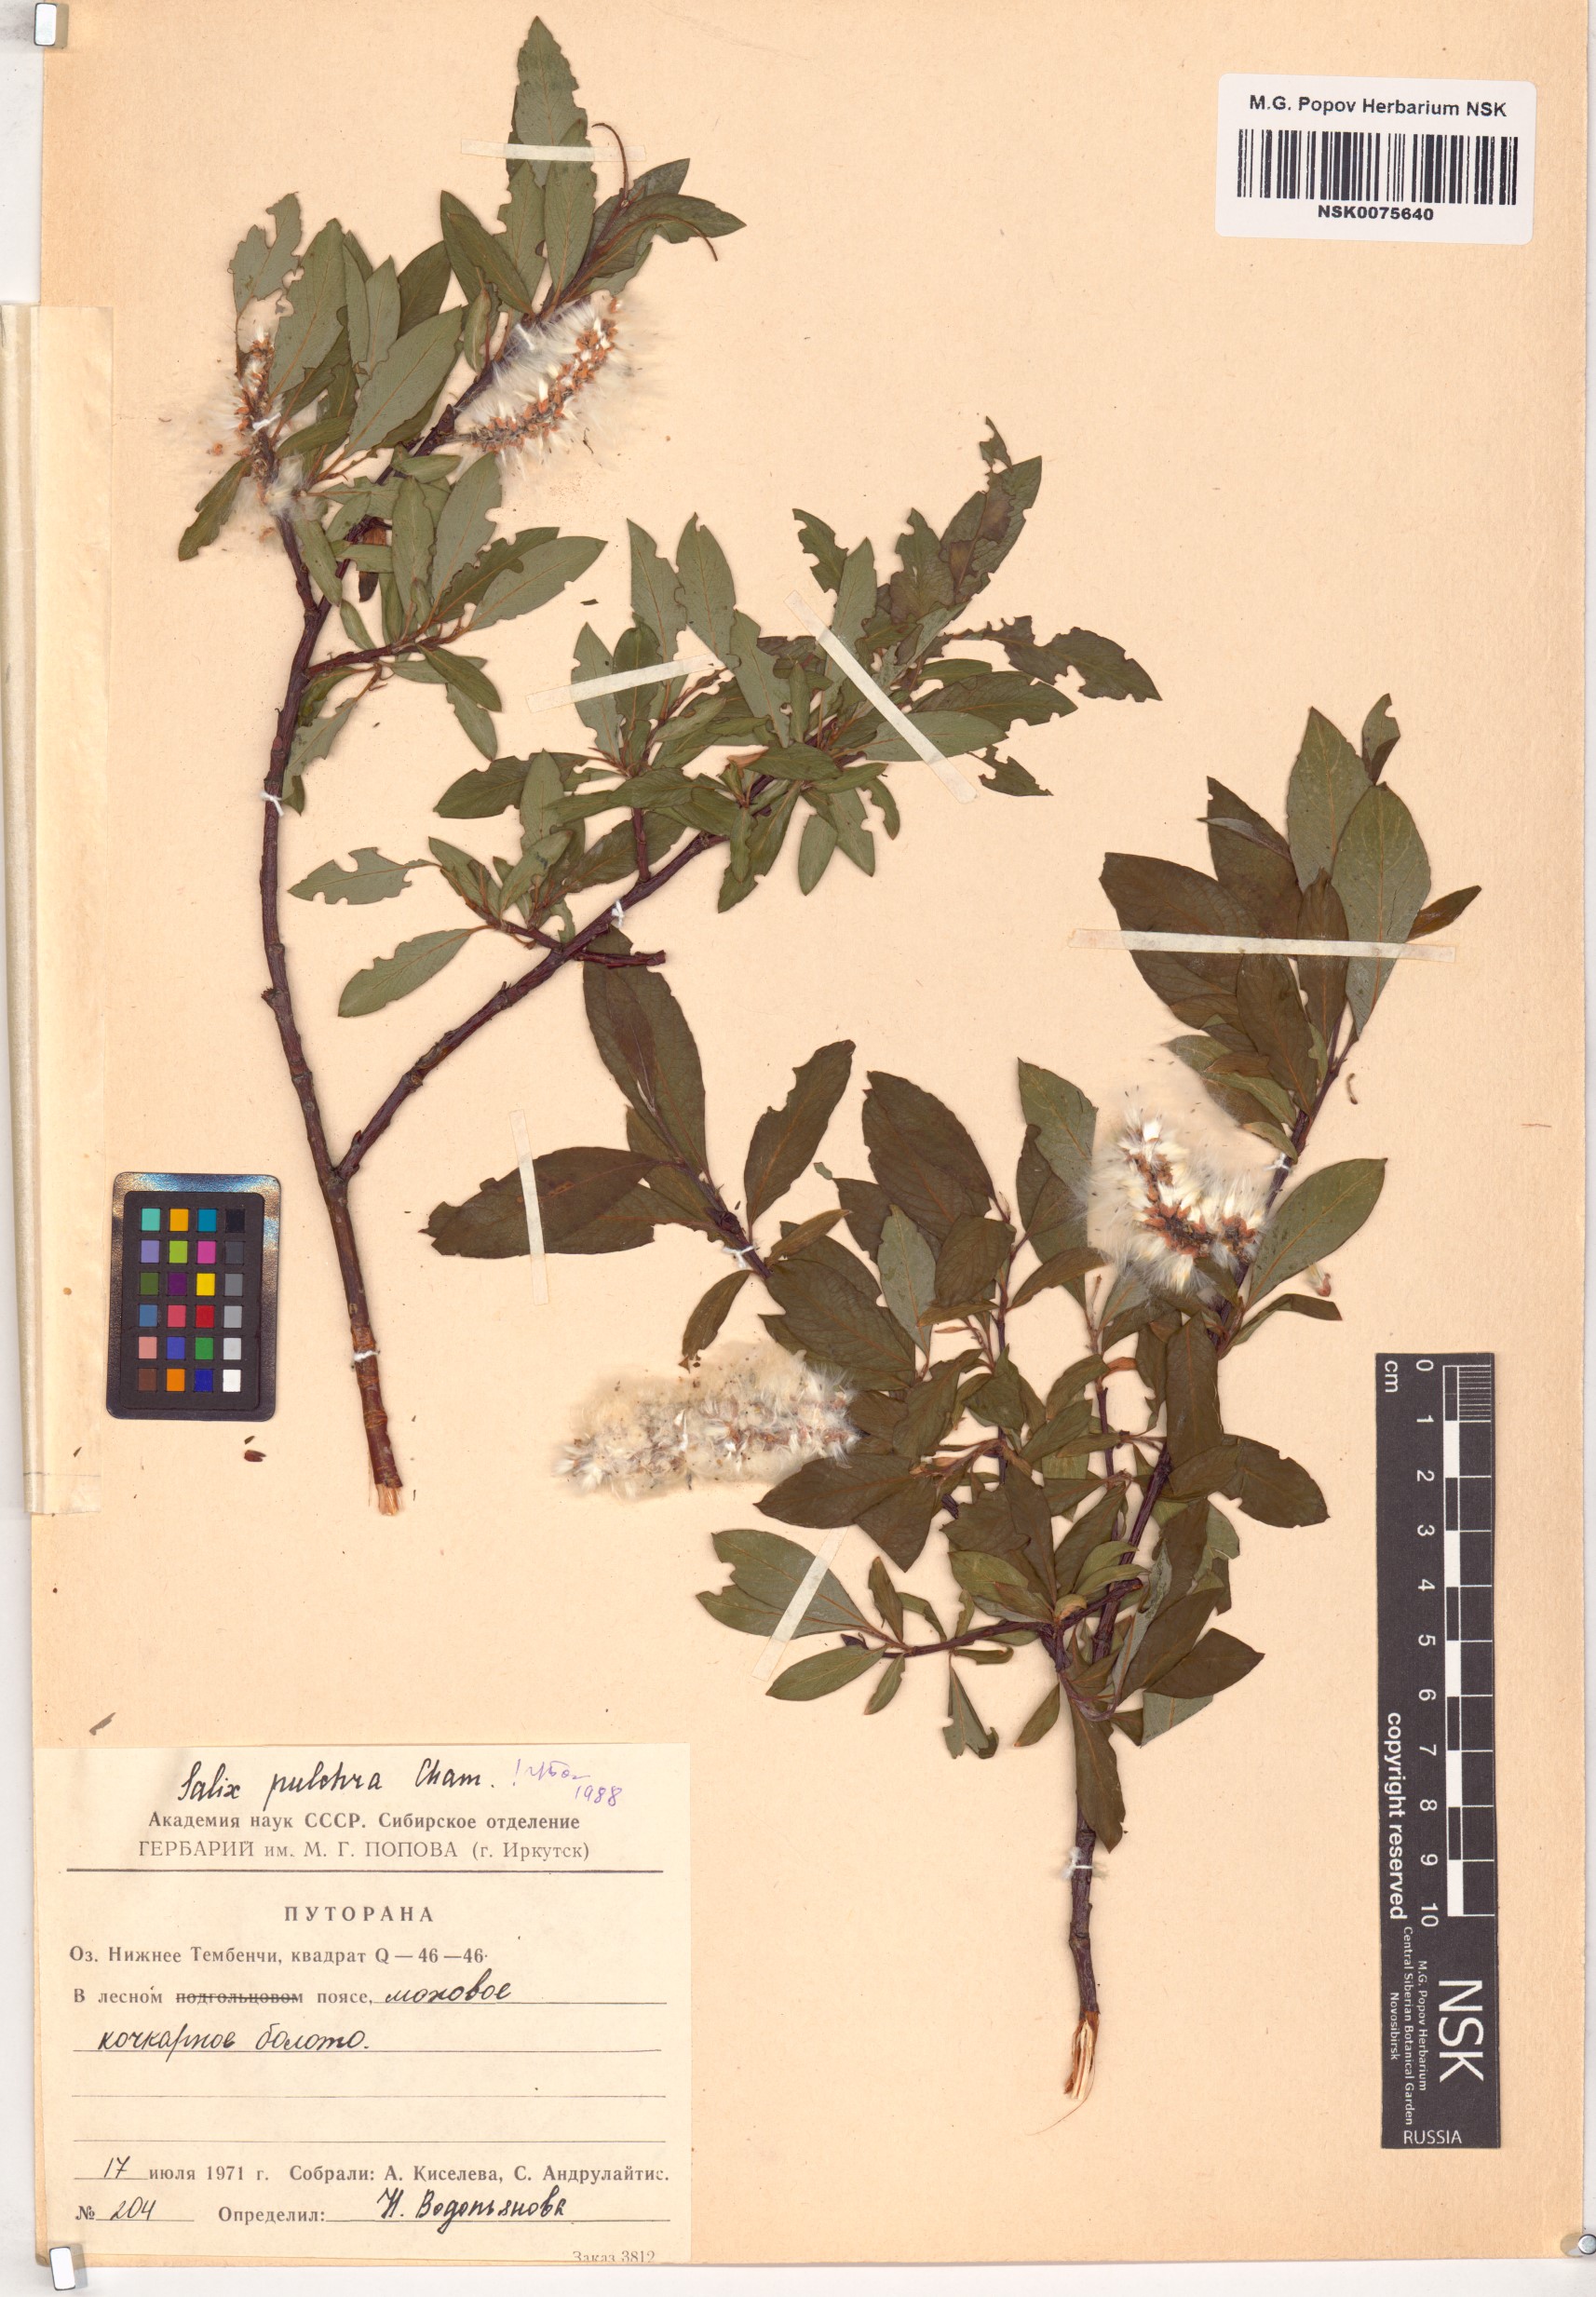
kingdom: Plantae
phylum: Tracheophyta
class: Magnoliopsida
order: Malpighiales
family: Salicaceae
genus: Salix
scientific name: Salix pulchra
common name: Diamond-leaved willow
